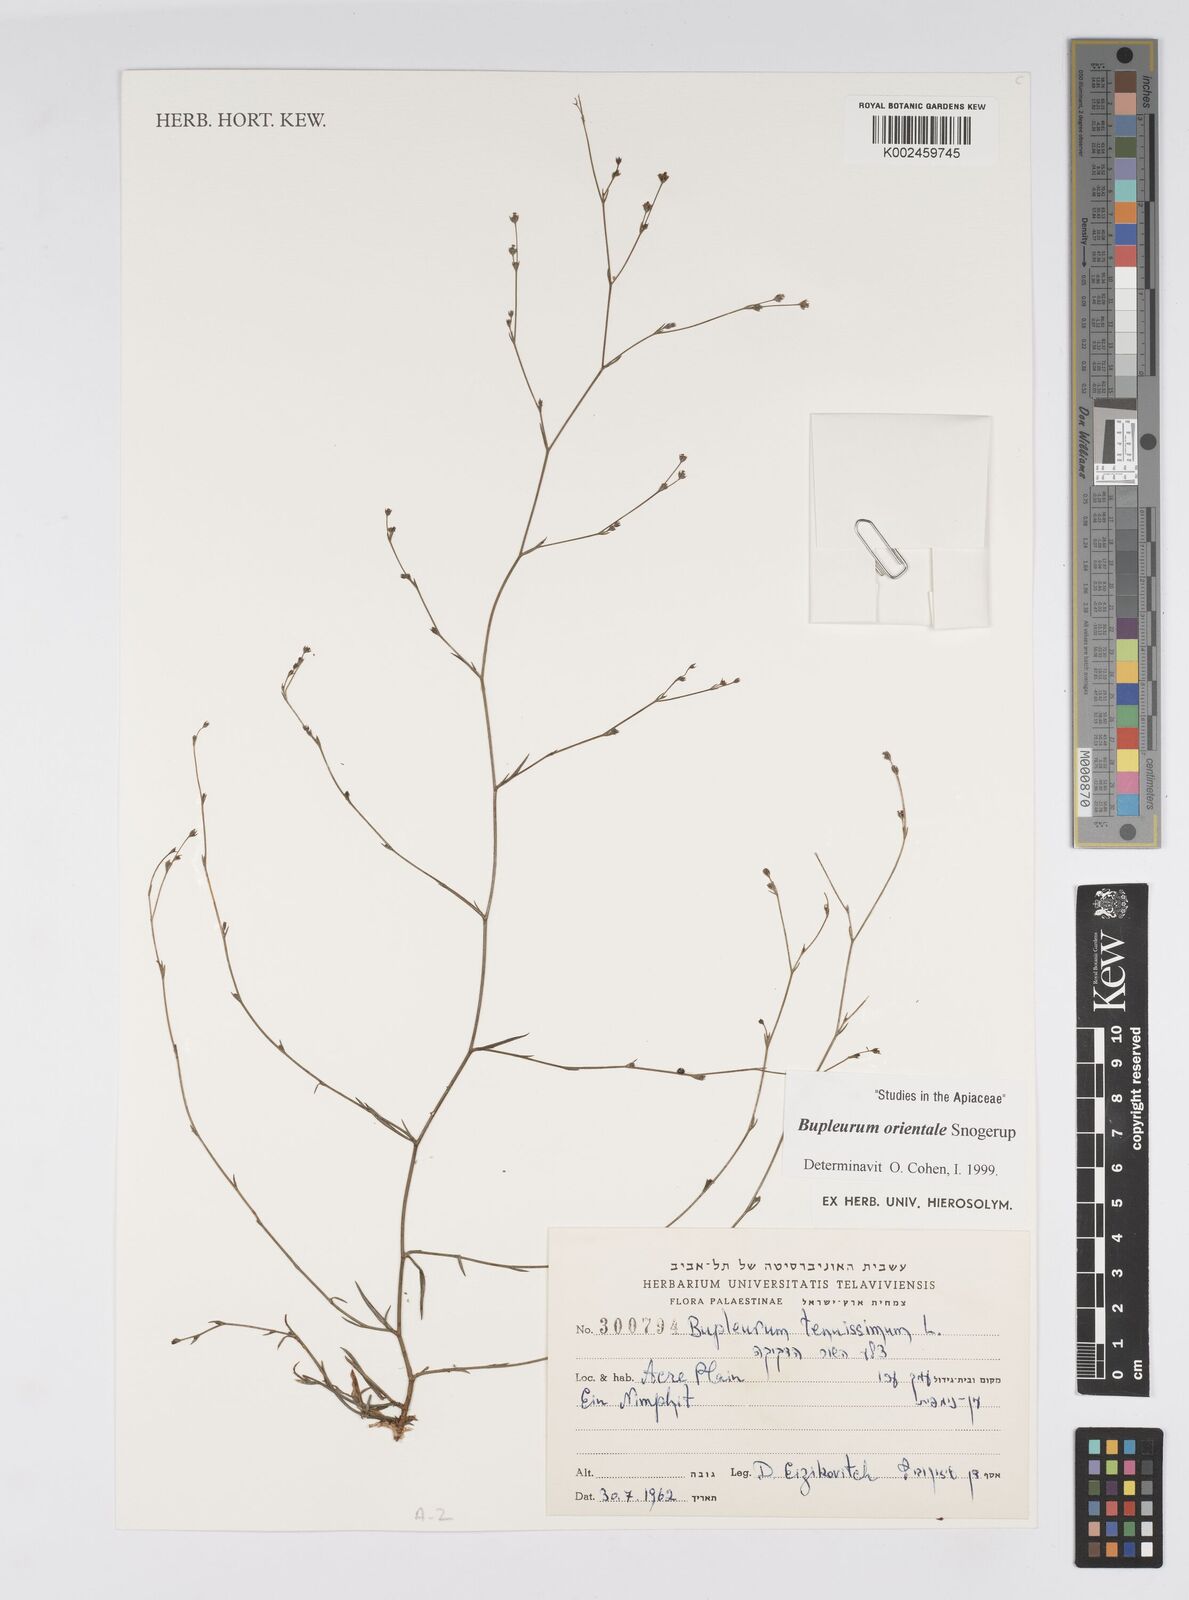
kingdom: Plantae
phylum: Tracheophyta
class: Magnoliopsida
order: Apiales
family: Apiaceae
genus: Bupleurum
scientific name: Bupleurum orientale
